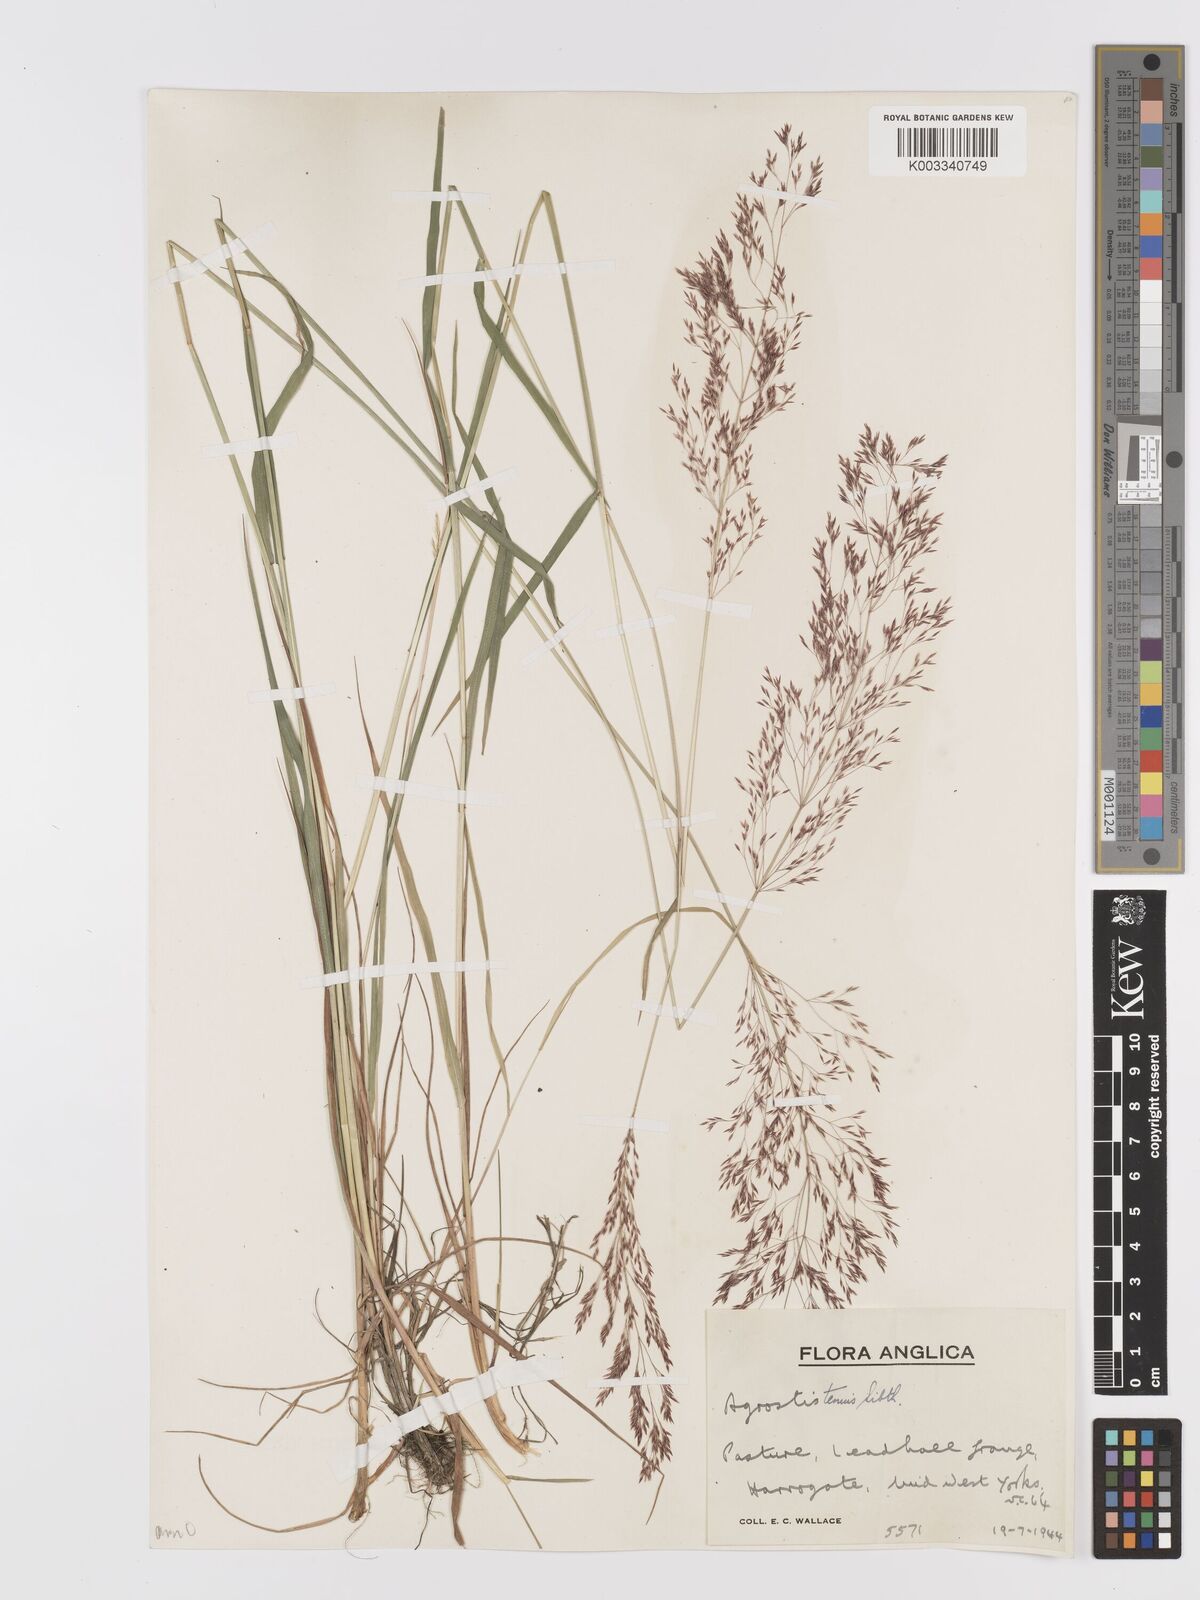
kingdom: Plantae
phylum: Tracheophyta
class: Liliopsida
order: Poales
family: Poaceae
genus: Agrostis
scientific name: Agrostis capillaris
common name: Colonial bentgrass
